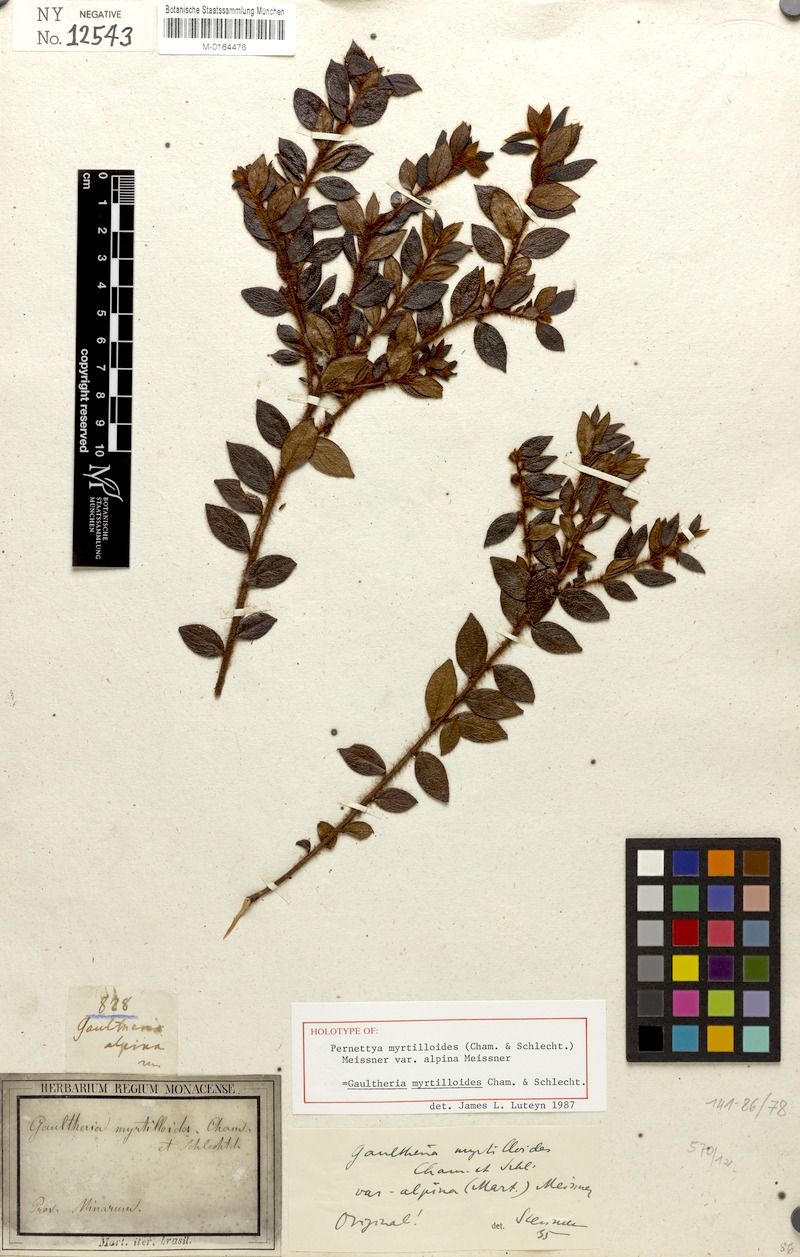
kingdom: Plantae
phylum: Tracheophyta
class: Magnoliopsida
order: Ericales
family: Ericaceae
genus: Gaultheria
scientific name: Gaultheria myrtilloides
